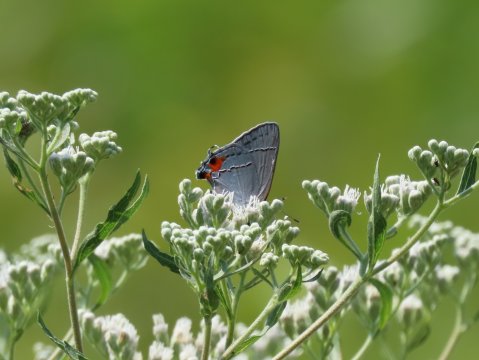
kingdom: Animalia
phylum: Arthropoda
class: Insecta
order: Lepidoptera
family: Lycaenidae
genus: Strymon
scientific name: Strymon melinus
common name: Gray Hairstreak
